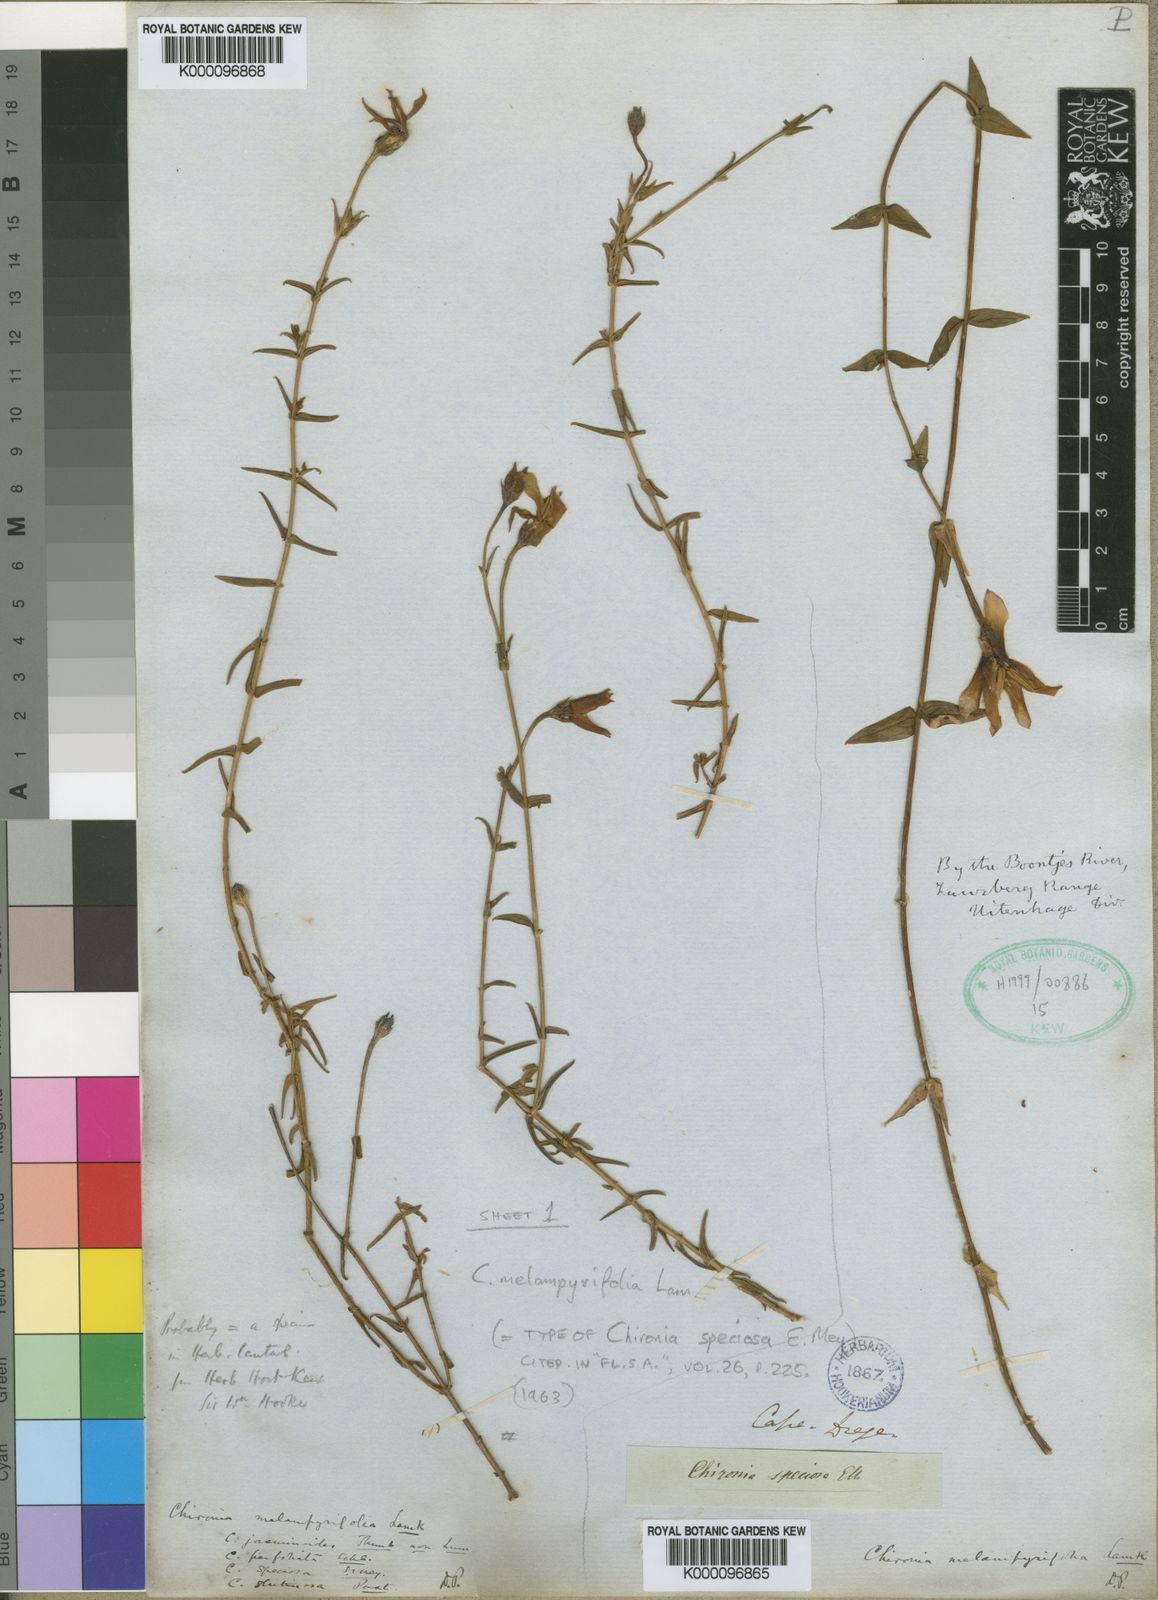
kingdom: Plantae
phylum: Tracheophyta
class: Magnoliopsida
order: Gentianales
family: Gentianaceae
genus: Chironia
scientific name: Chironia melampyrifolia
